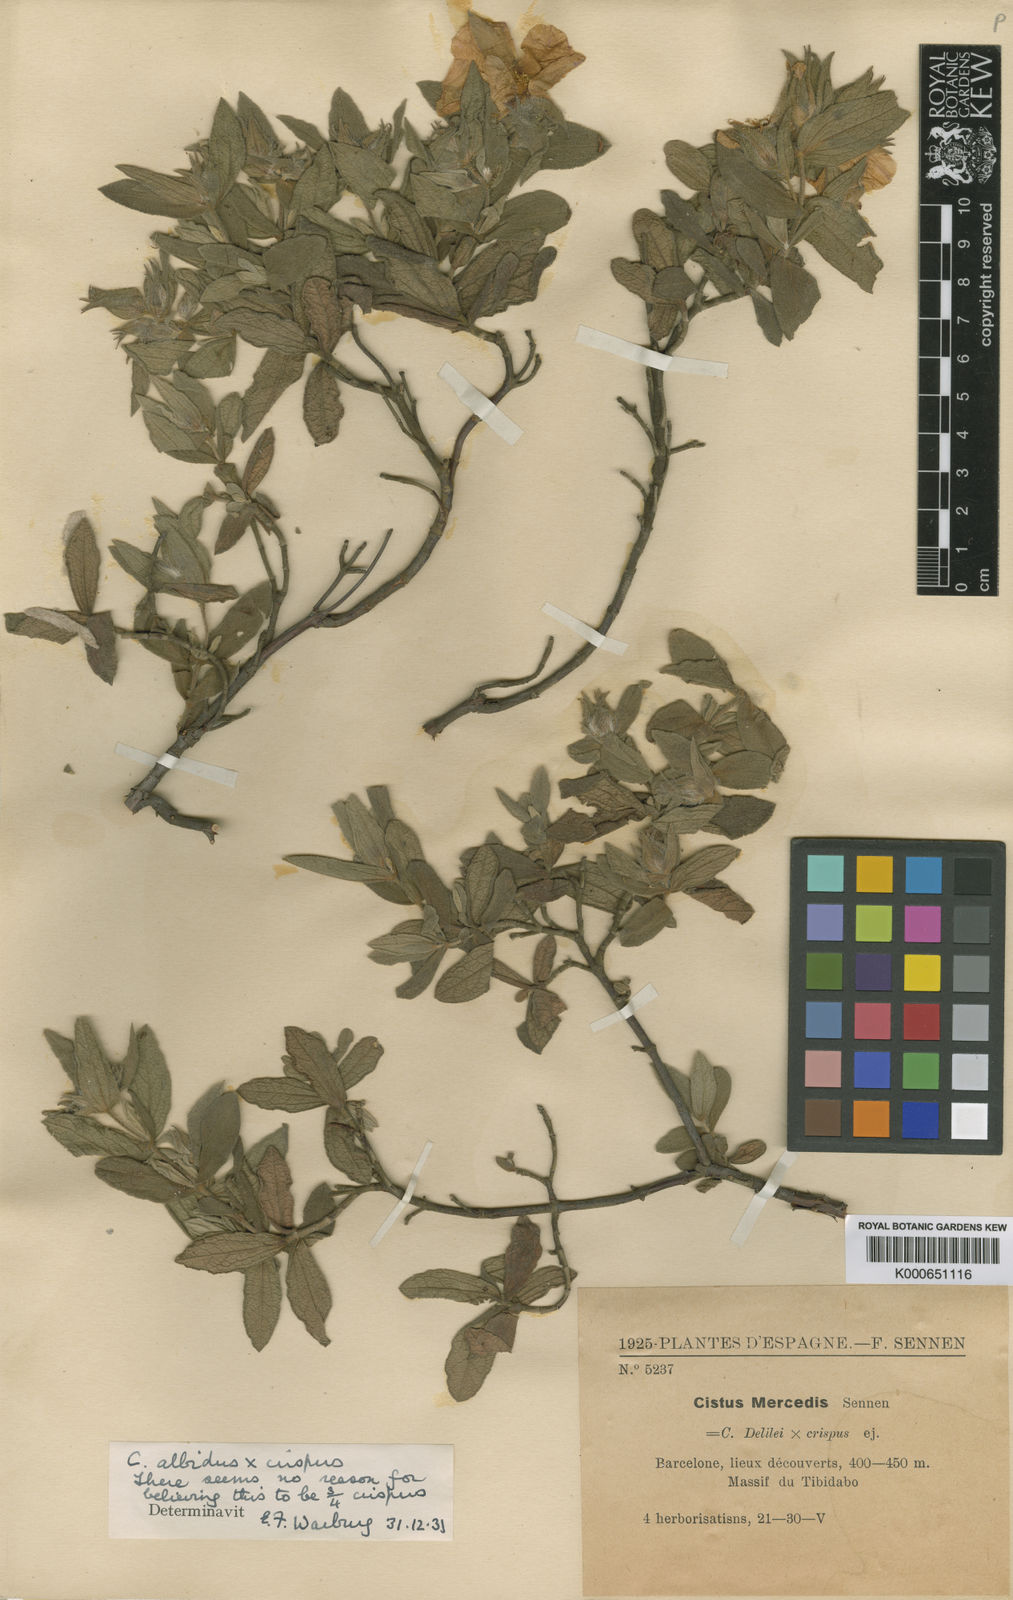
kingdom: Plantae
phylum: Tracheophyta
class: Magnoliopsida
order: Malvales
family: Cistaceae
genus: Cistus
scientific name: Cistus crispus
